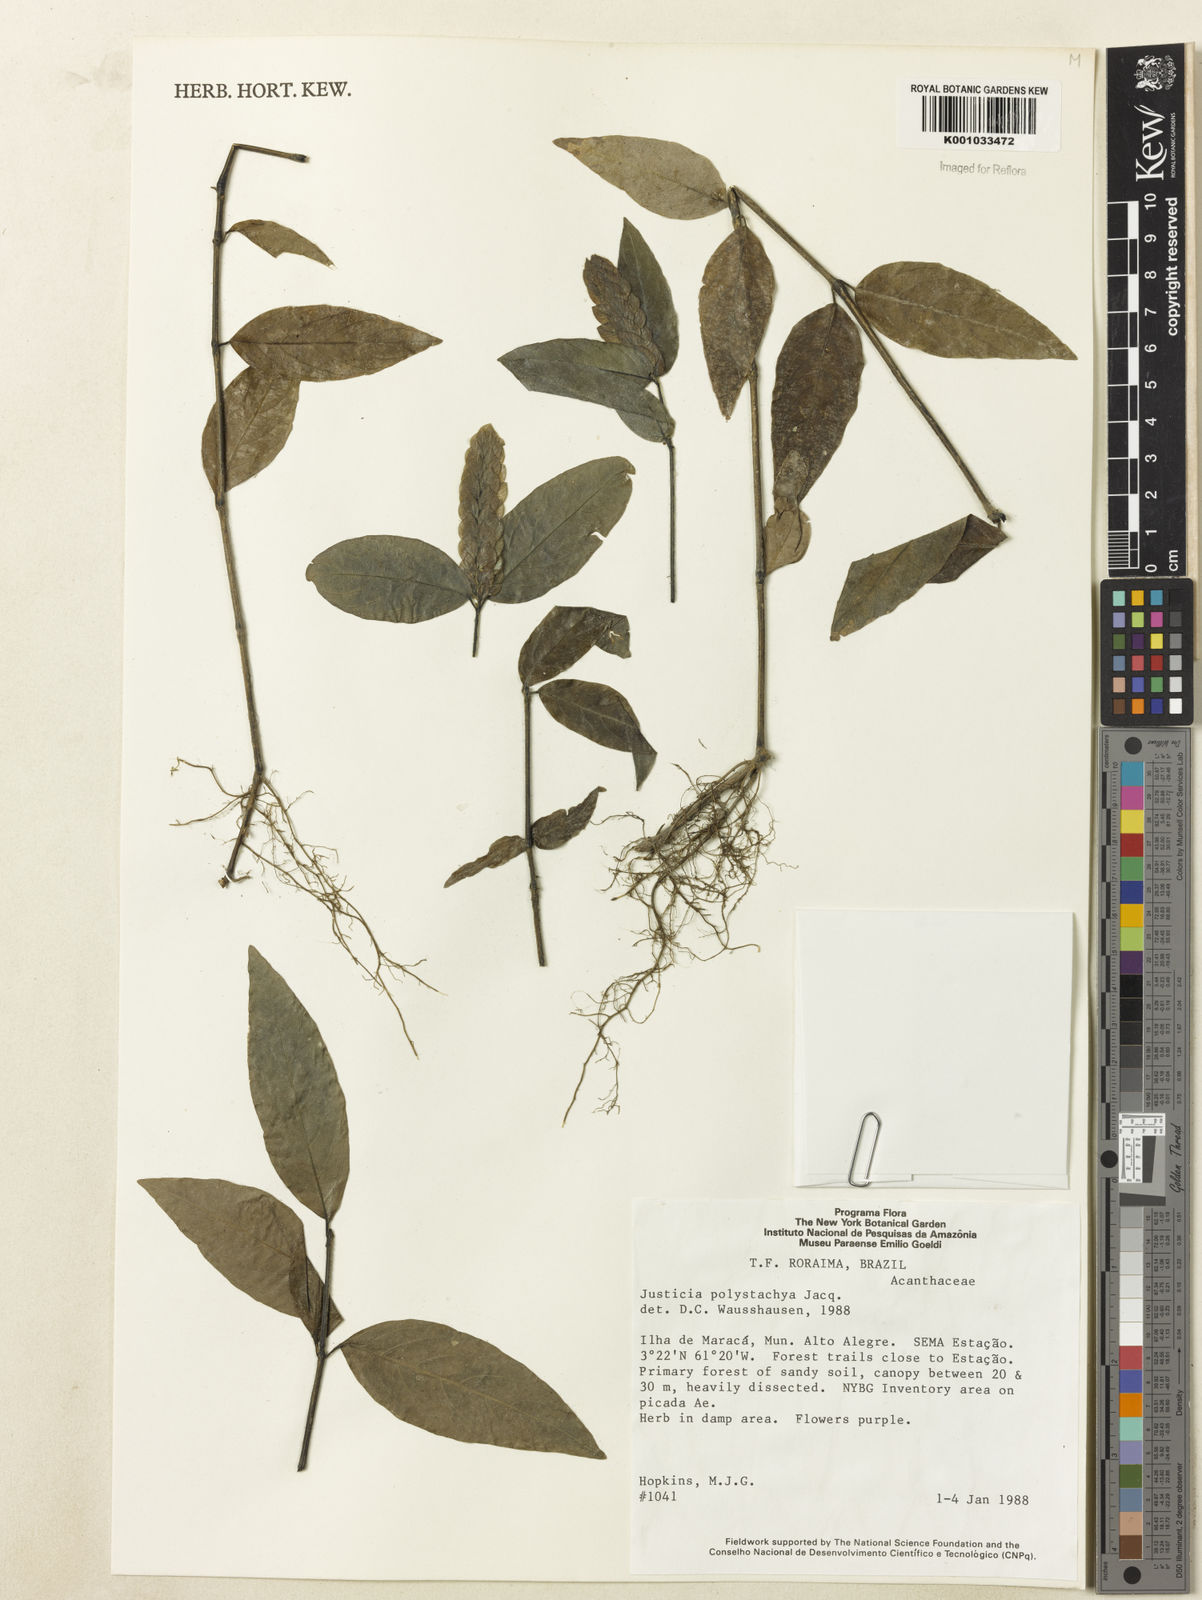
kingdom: Plantae
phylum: Tracheophyta
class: Magnoliopsida
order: Lamiales
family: Acanthaceae
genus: Justicia
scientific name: Justicia polystachya
